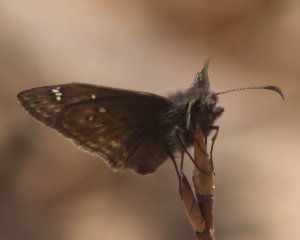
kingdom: Animalia
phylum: Arthropoda
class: Insecta
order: Lepidoptera
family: Hesperiidae
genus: Gesta
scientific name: Gesta
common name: Juvenal's Duskywing
